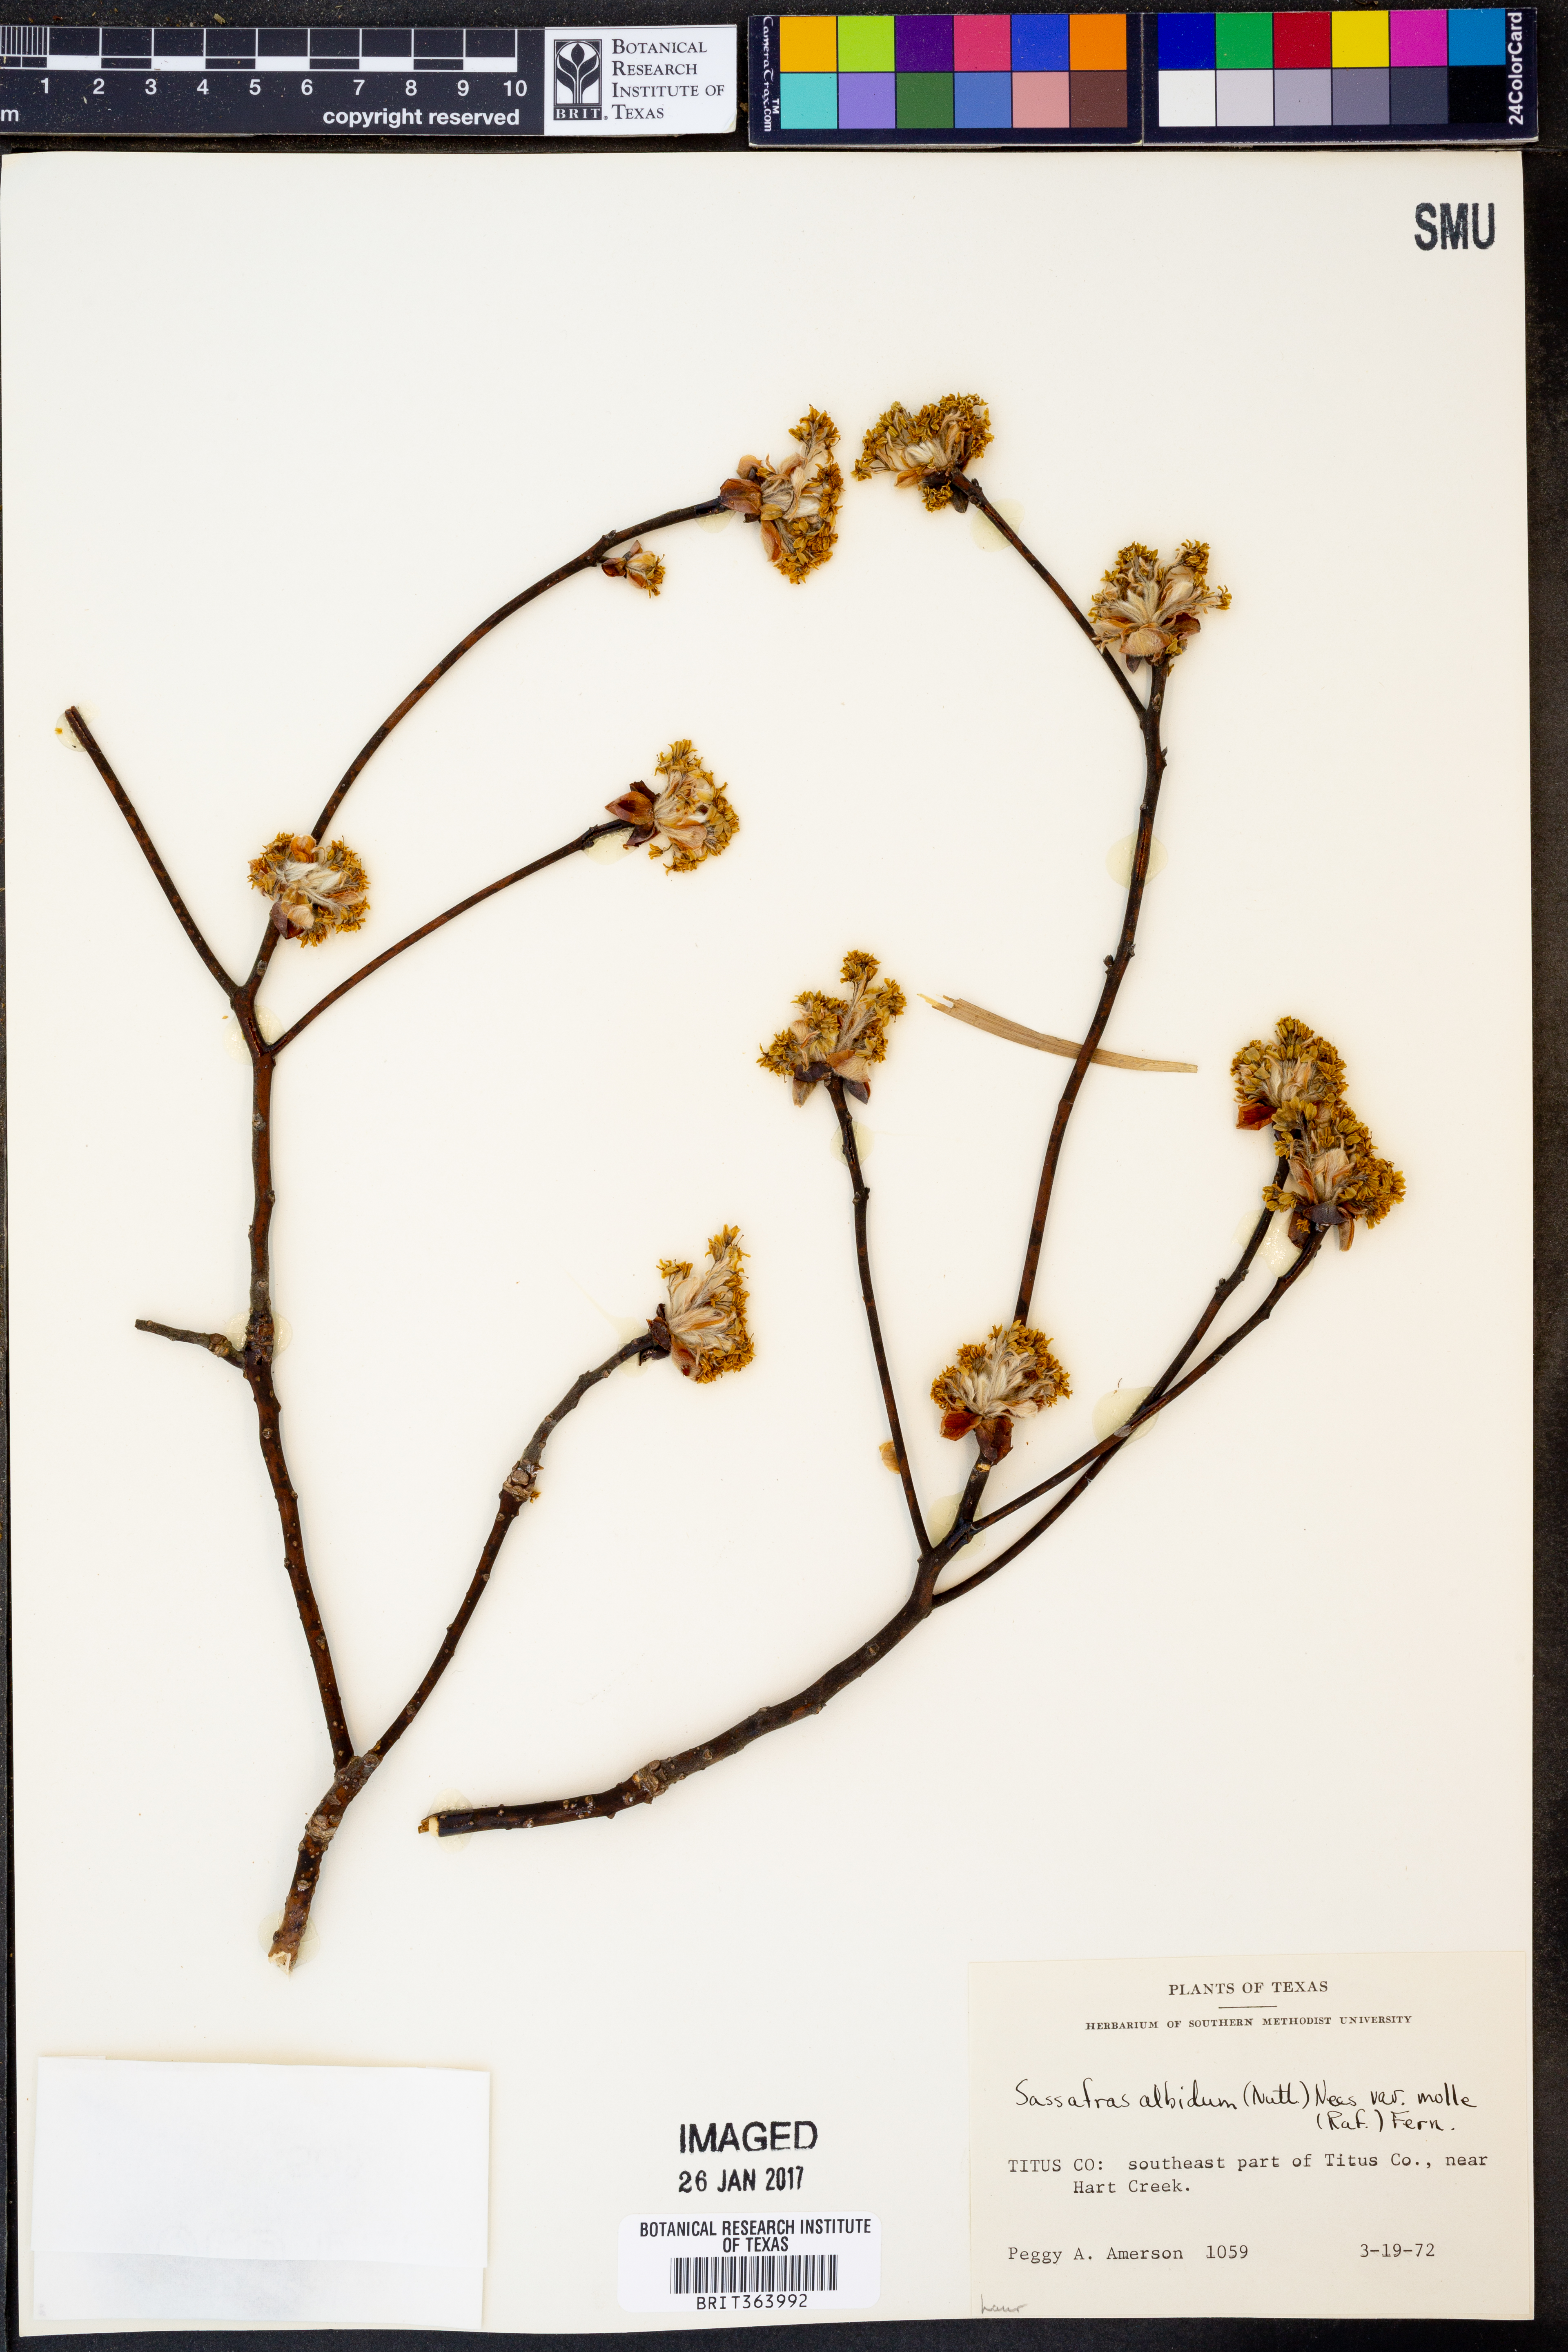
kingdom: Plantae
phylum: Tracheophyta
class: Magnoliopsida
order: Laurales
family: Lauraceae
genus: Sassafras
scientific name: Sassafras albidum
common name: Sassafras
